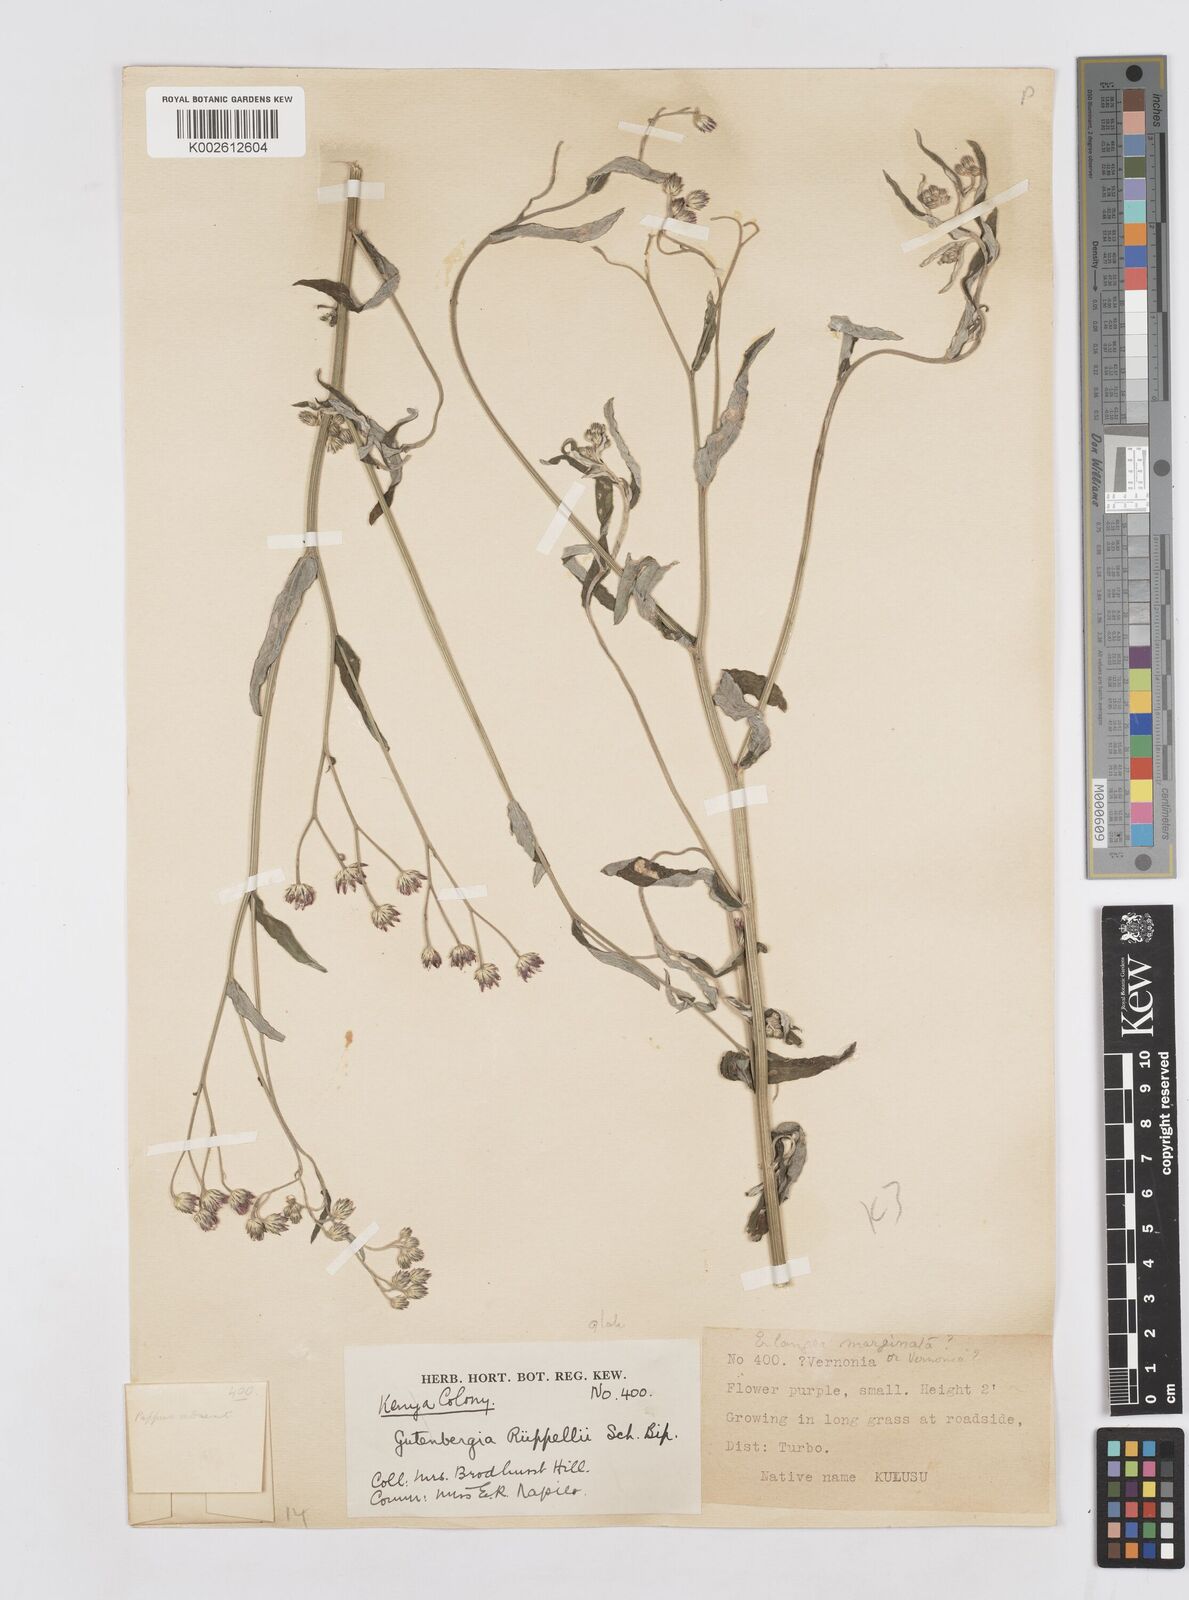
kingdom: Plantae
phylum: Tracheophyta
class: Magnoliopsida
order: Asterales
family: Asteraceae
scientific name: Asteraceae
